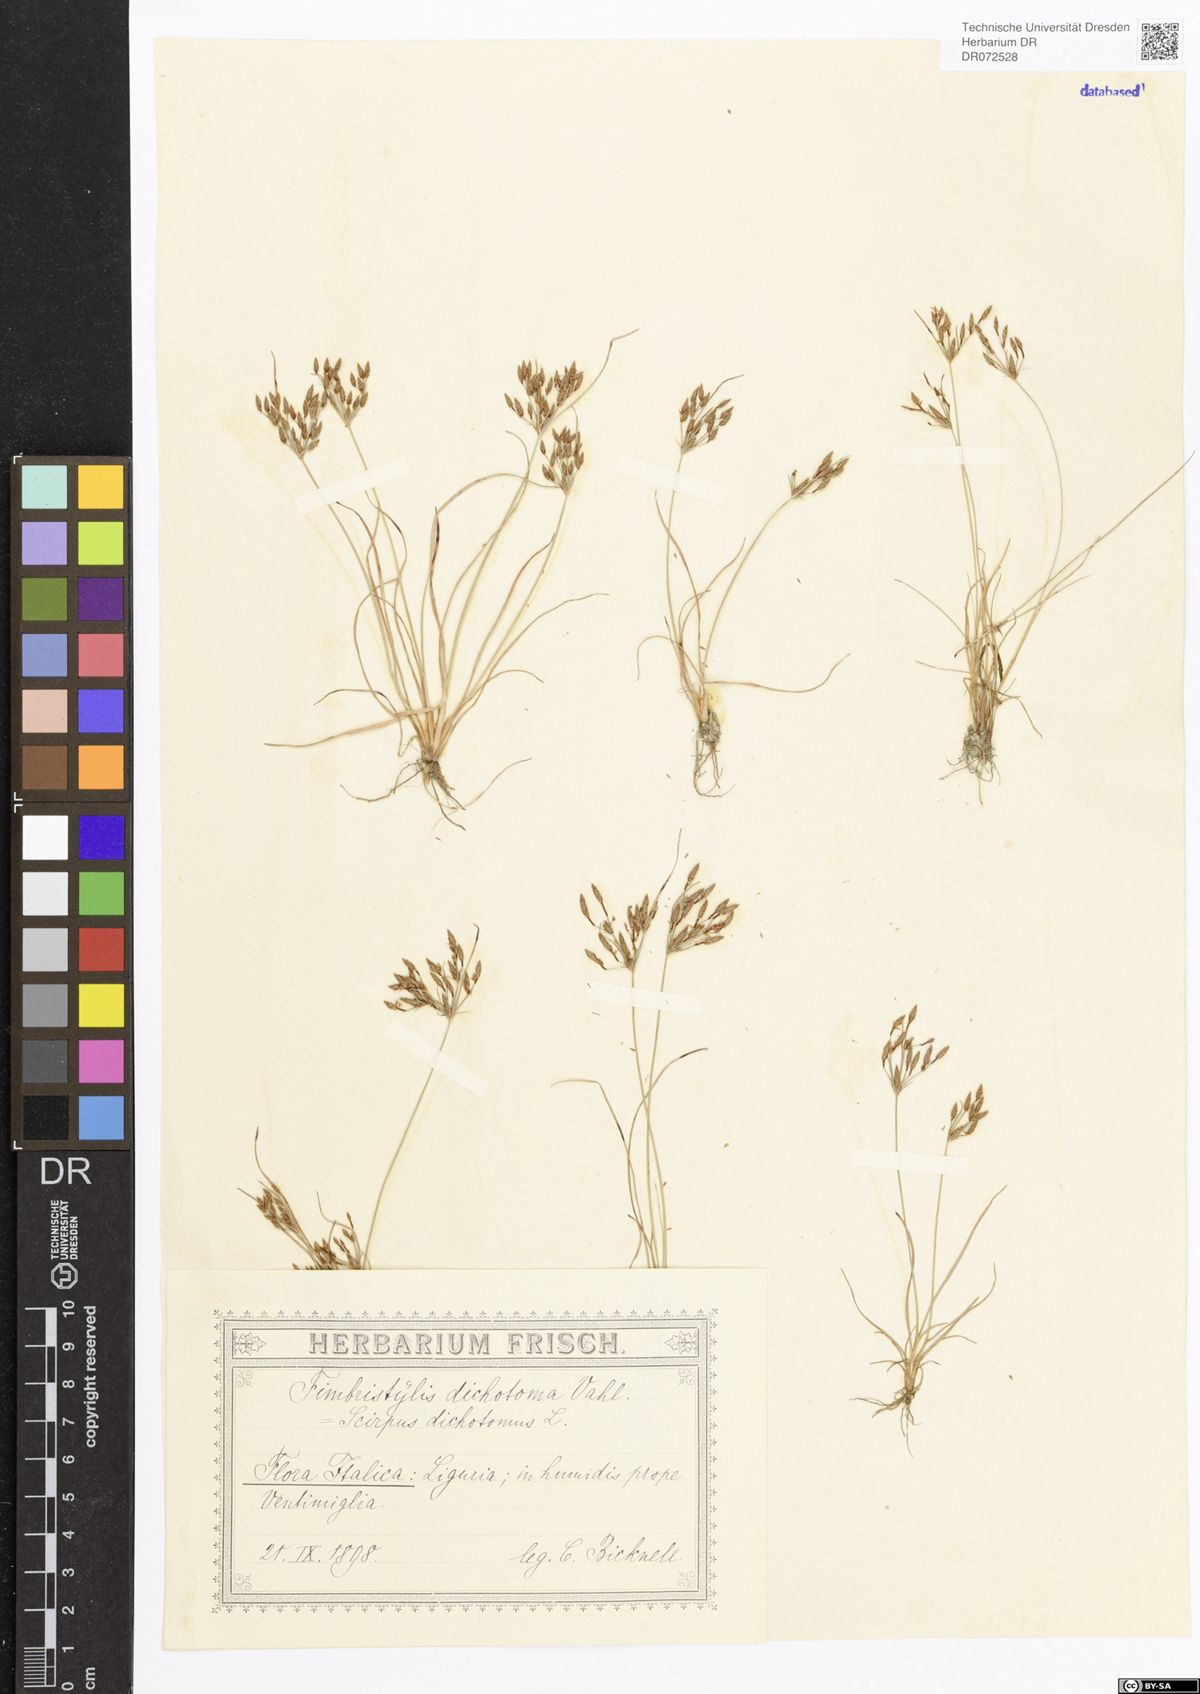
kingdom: Plantae
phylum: Tracheophyta
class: Liliopsida
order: Poales
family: Cyperaceae
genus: Fimbristylis
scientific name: Fimbristylis dichotoma
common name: Forked fimbry
